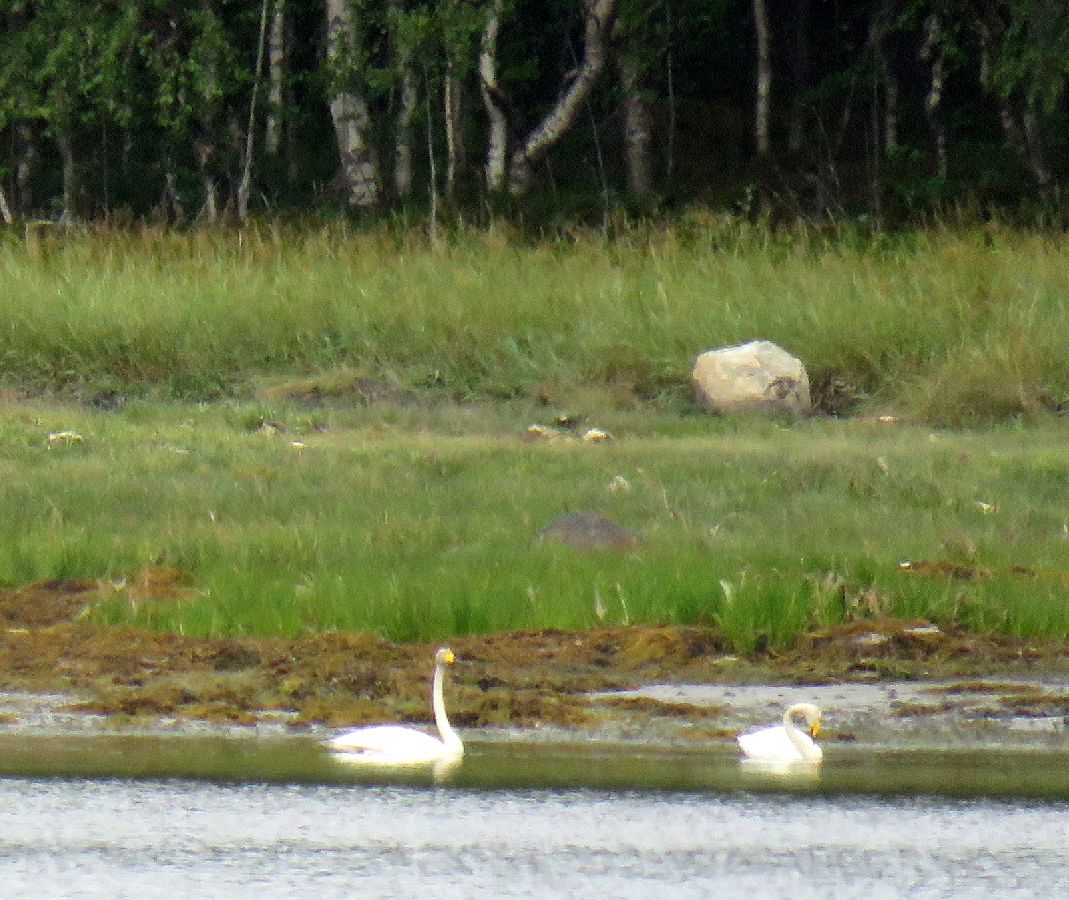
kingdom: Animalia
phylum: Chordata
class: Aves
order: Anseriformes
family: Anatidae
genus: Cygnus
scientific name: Cygnus cygnus
